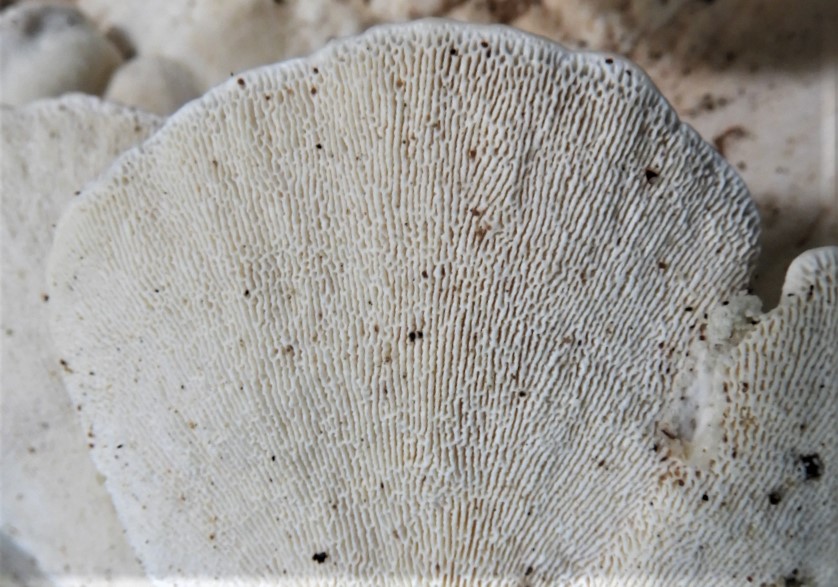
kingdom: Fungi
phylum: Basidiomycota
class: Agaricomycetes
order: Polyporales
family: Polyporaceae
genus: Trametes
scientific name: Trametes gibbosa
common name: puklet læderporesvamp
